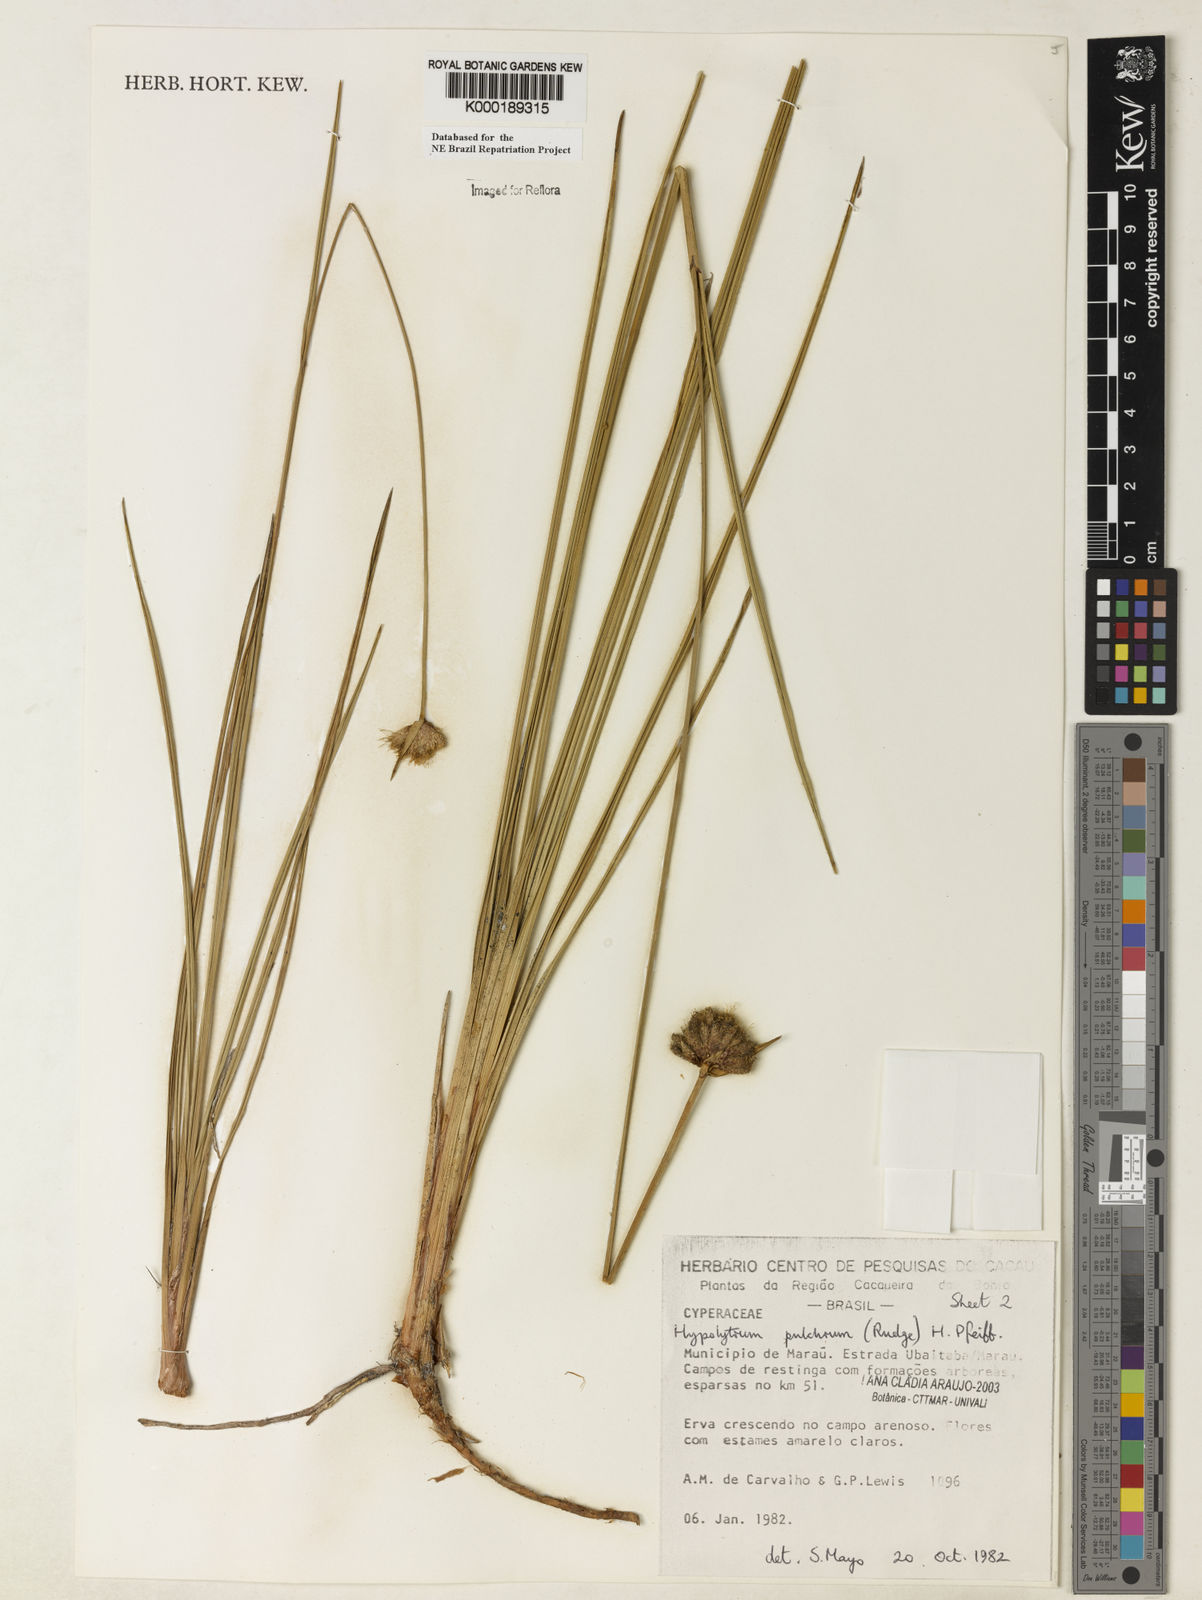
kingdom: Plantae
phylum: Tracheophyta
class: Liliopsida
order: Poales
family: Cyperaceae
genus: Hypolytrum
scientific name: Hypolytrum pulchrum
